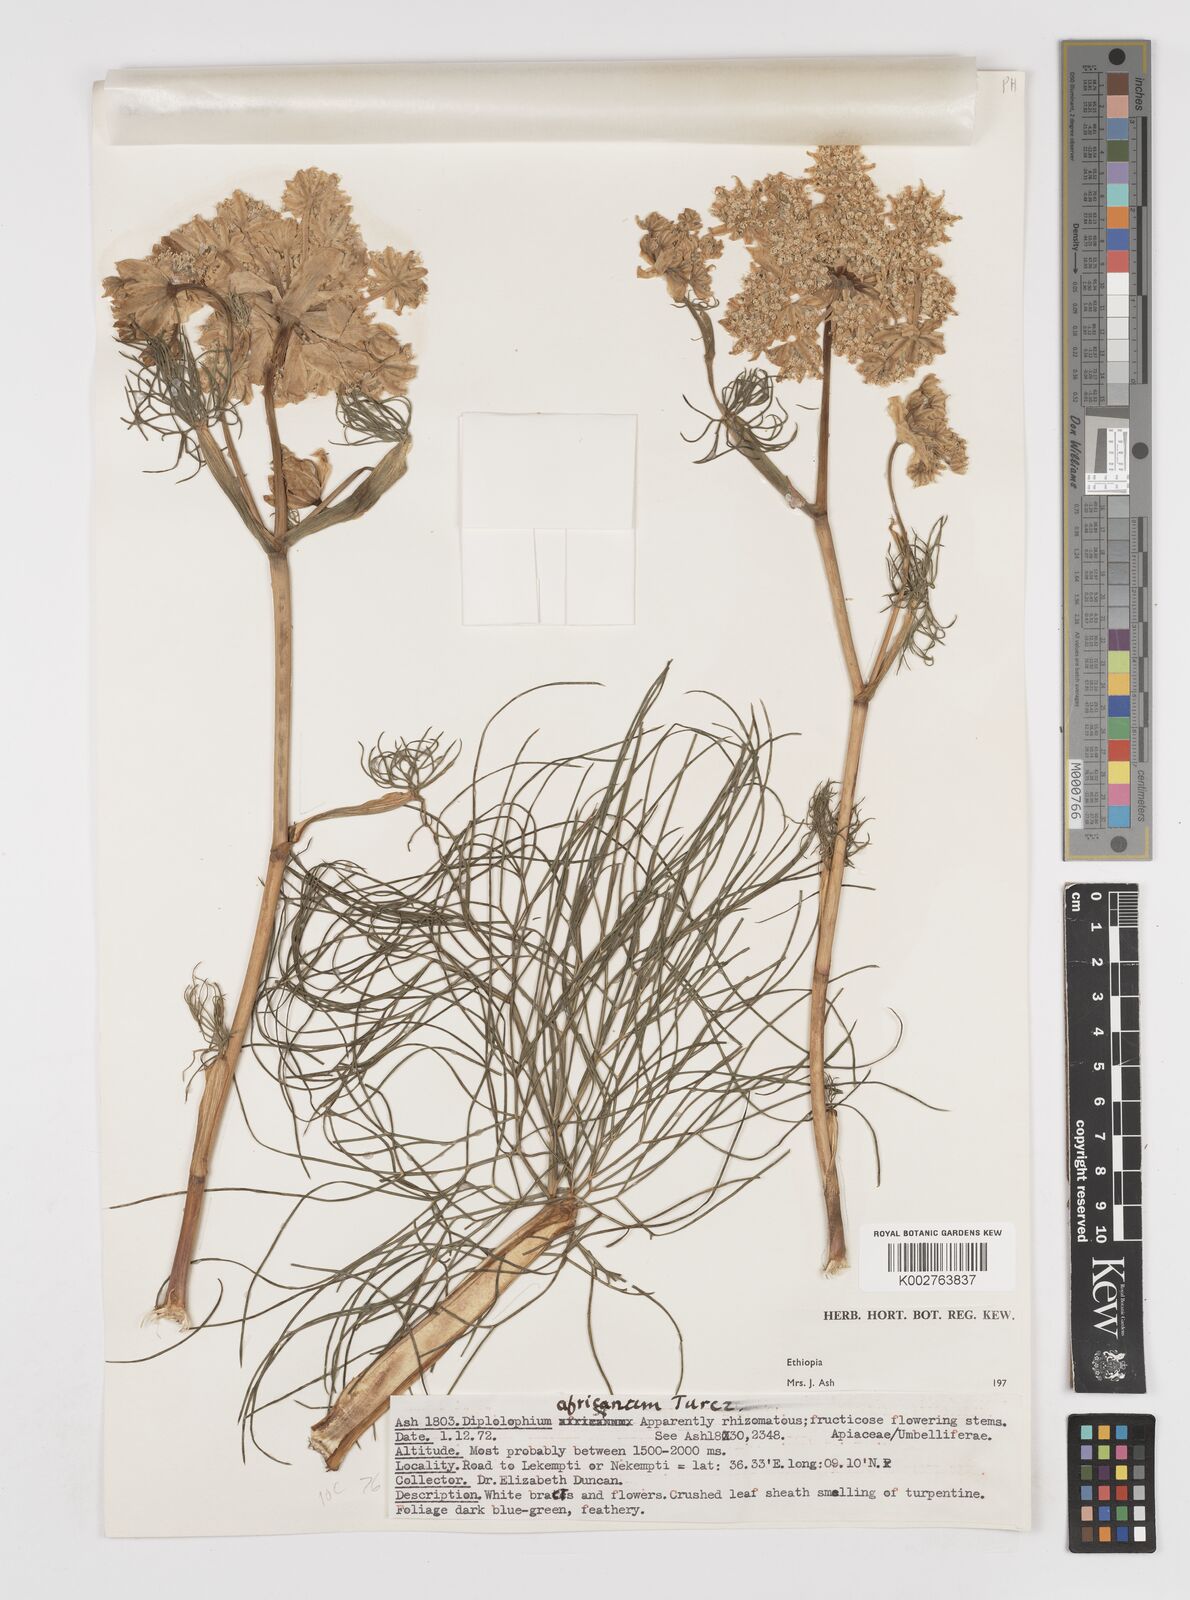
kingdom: Plantae
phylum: Tracheophyta
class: Magnoliopsida
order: Apiales
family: Apiaceae
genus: Diplolophium
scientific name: Diplolophium africanum
